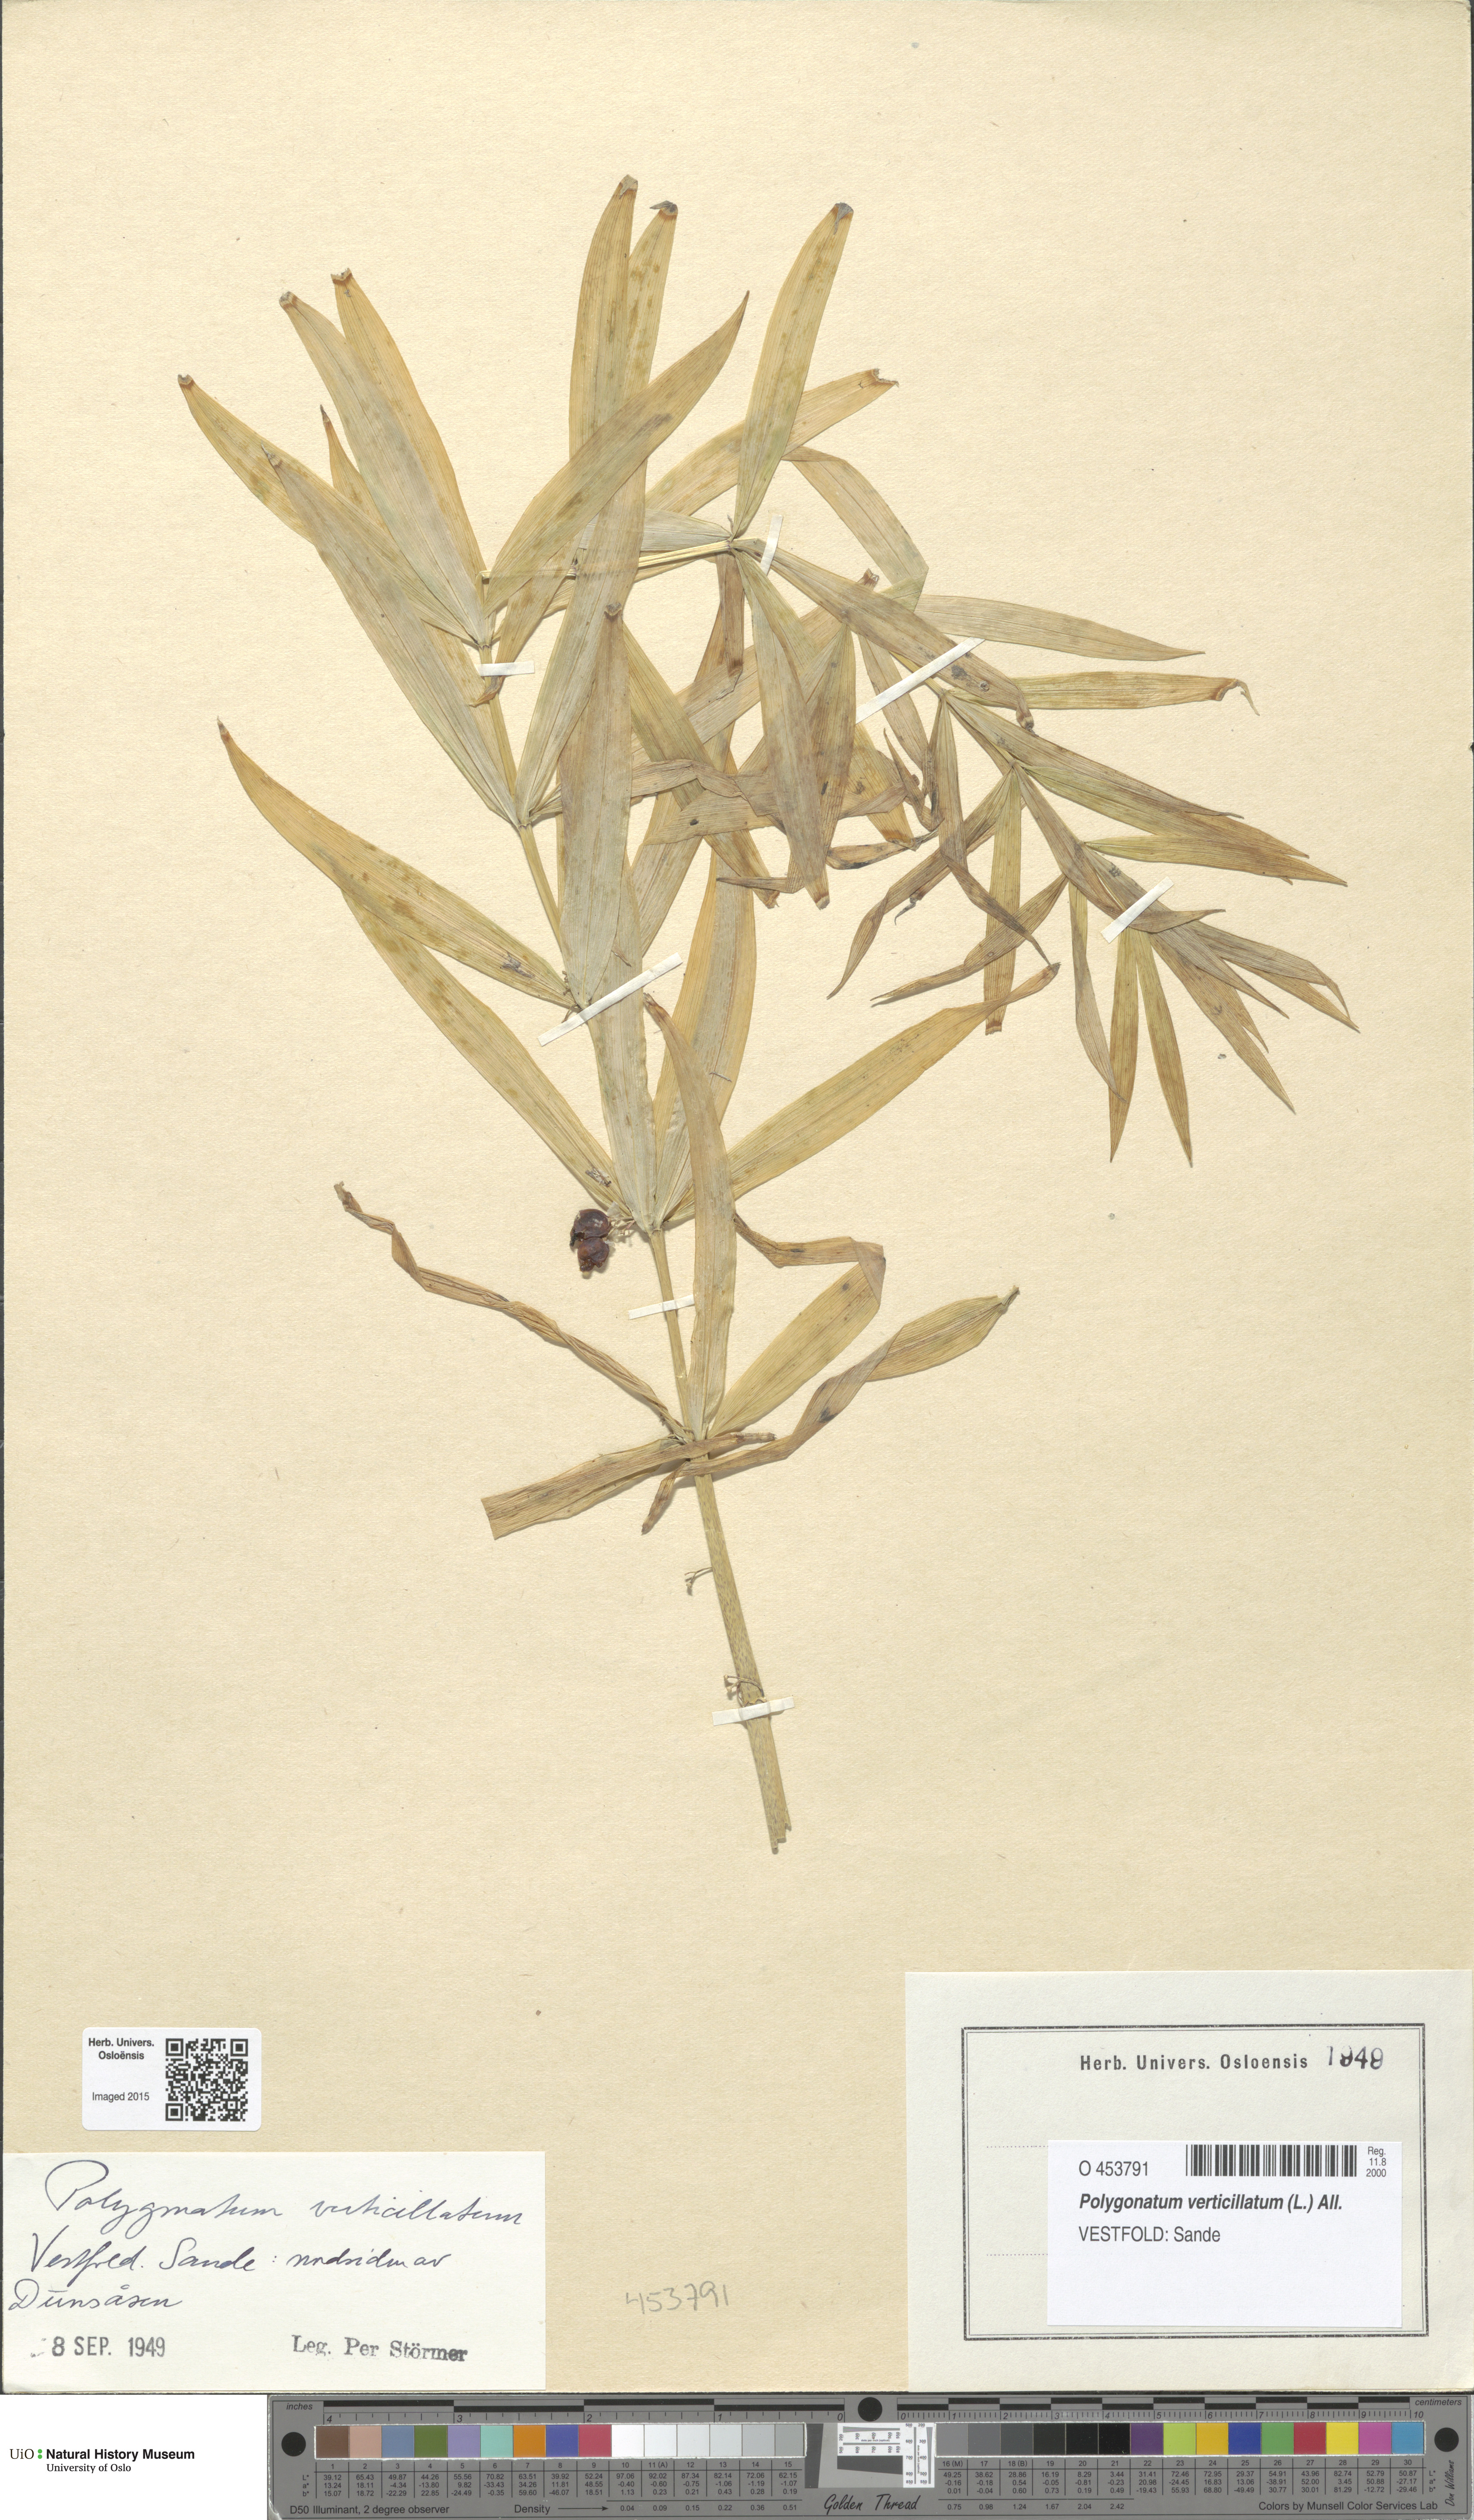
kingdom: Plantae
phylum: Tracheophyta
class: Liliopsida
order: Asparagales
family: Asparagaceae
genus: Polygonatum
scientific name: Polygonatum verticillatum
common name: Whorled solomon's-seal
